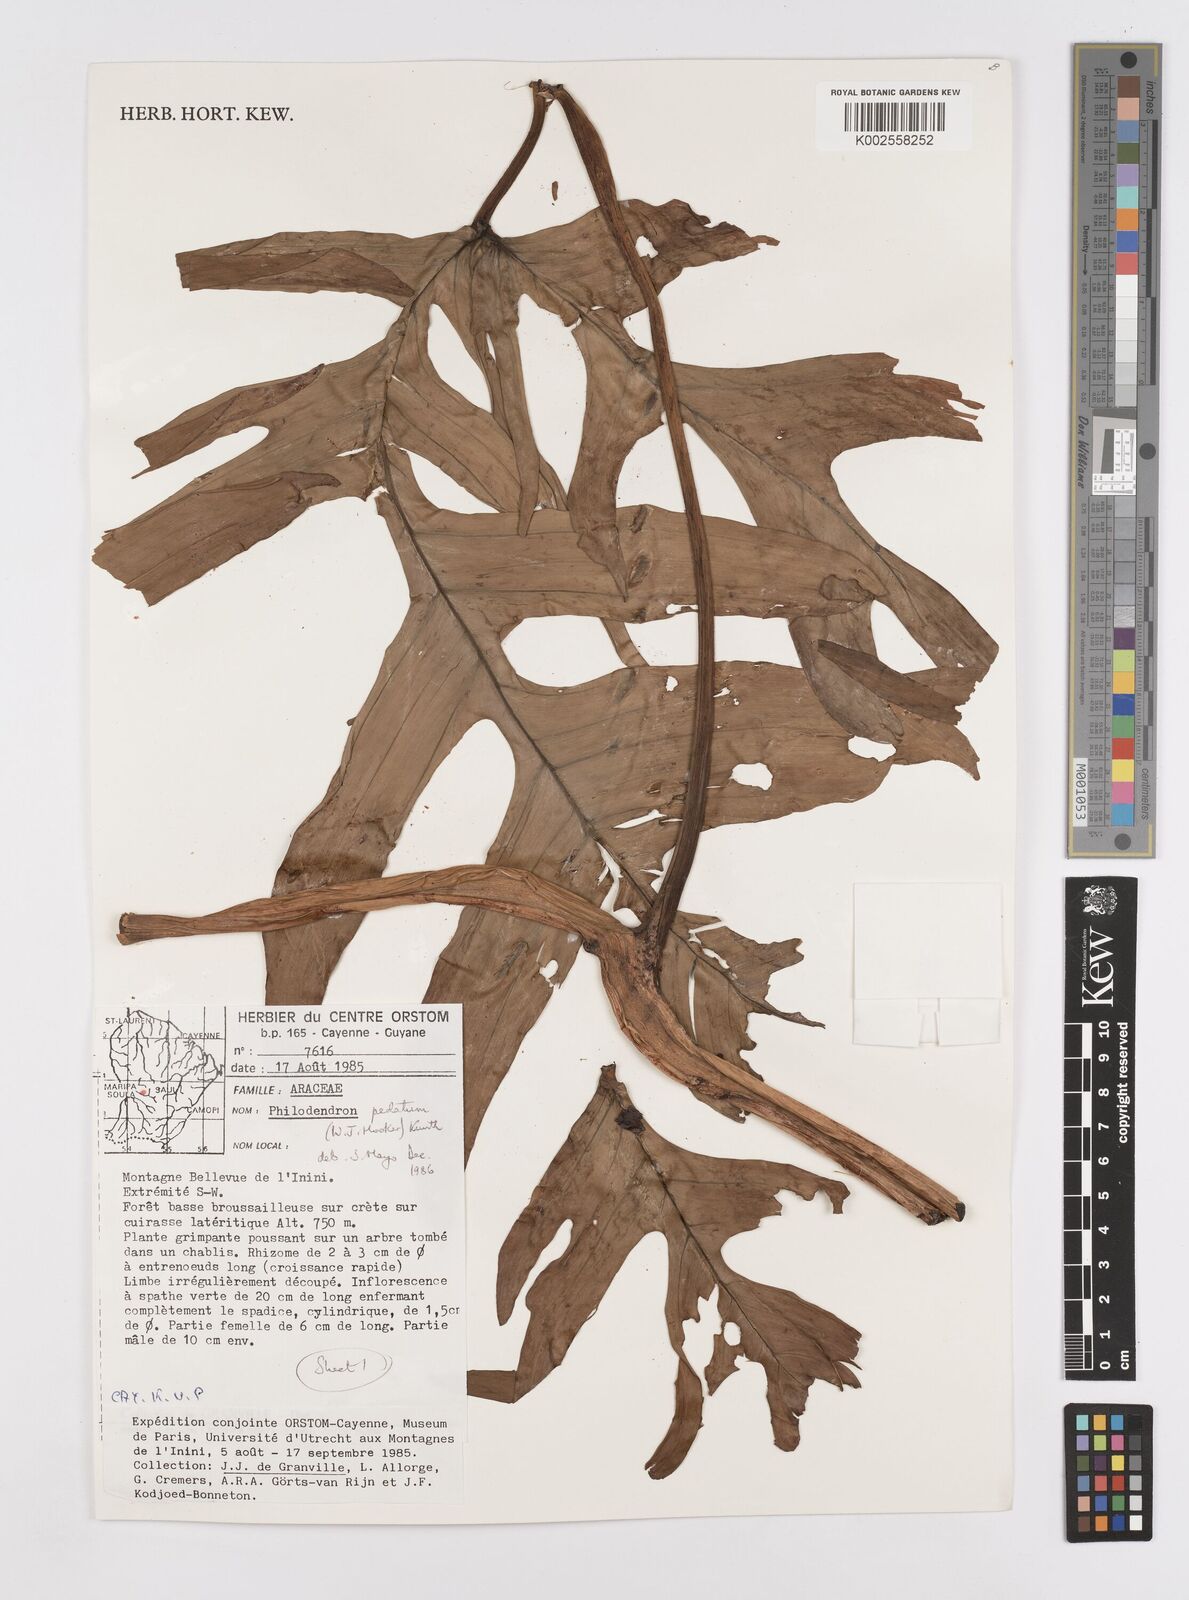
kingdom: Plantae
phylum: Tracheophyta
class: Liliopsida
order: Alismatales
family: Araceae
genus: Philodendron
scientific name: Philodendron pedatum
